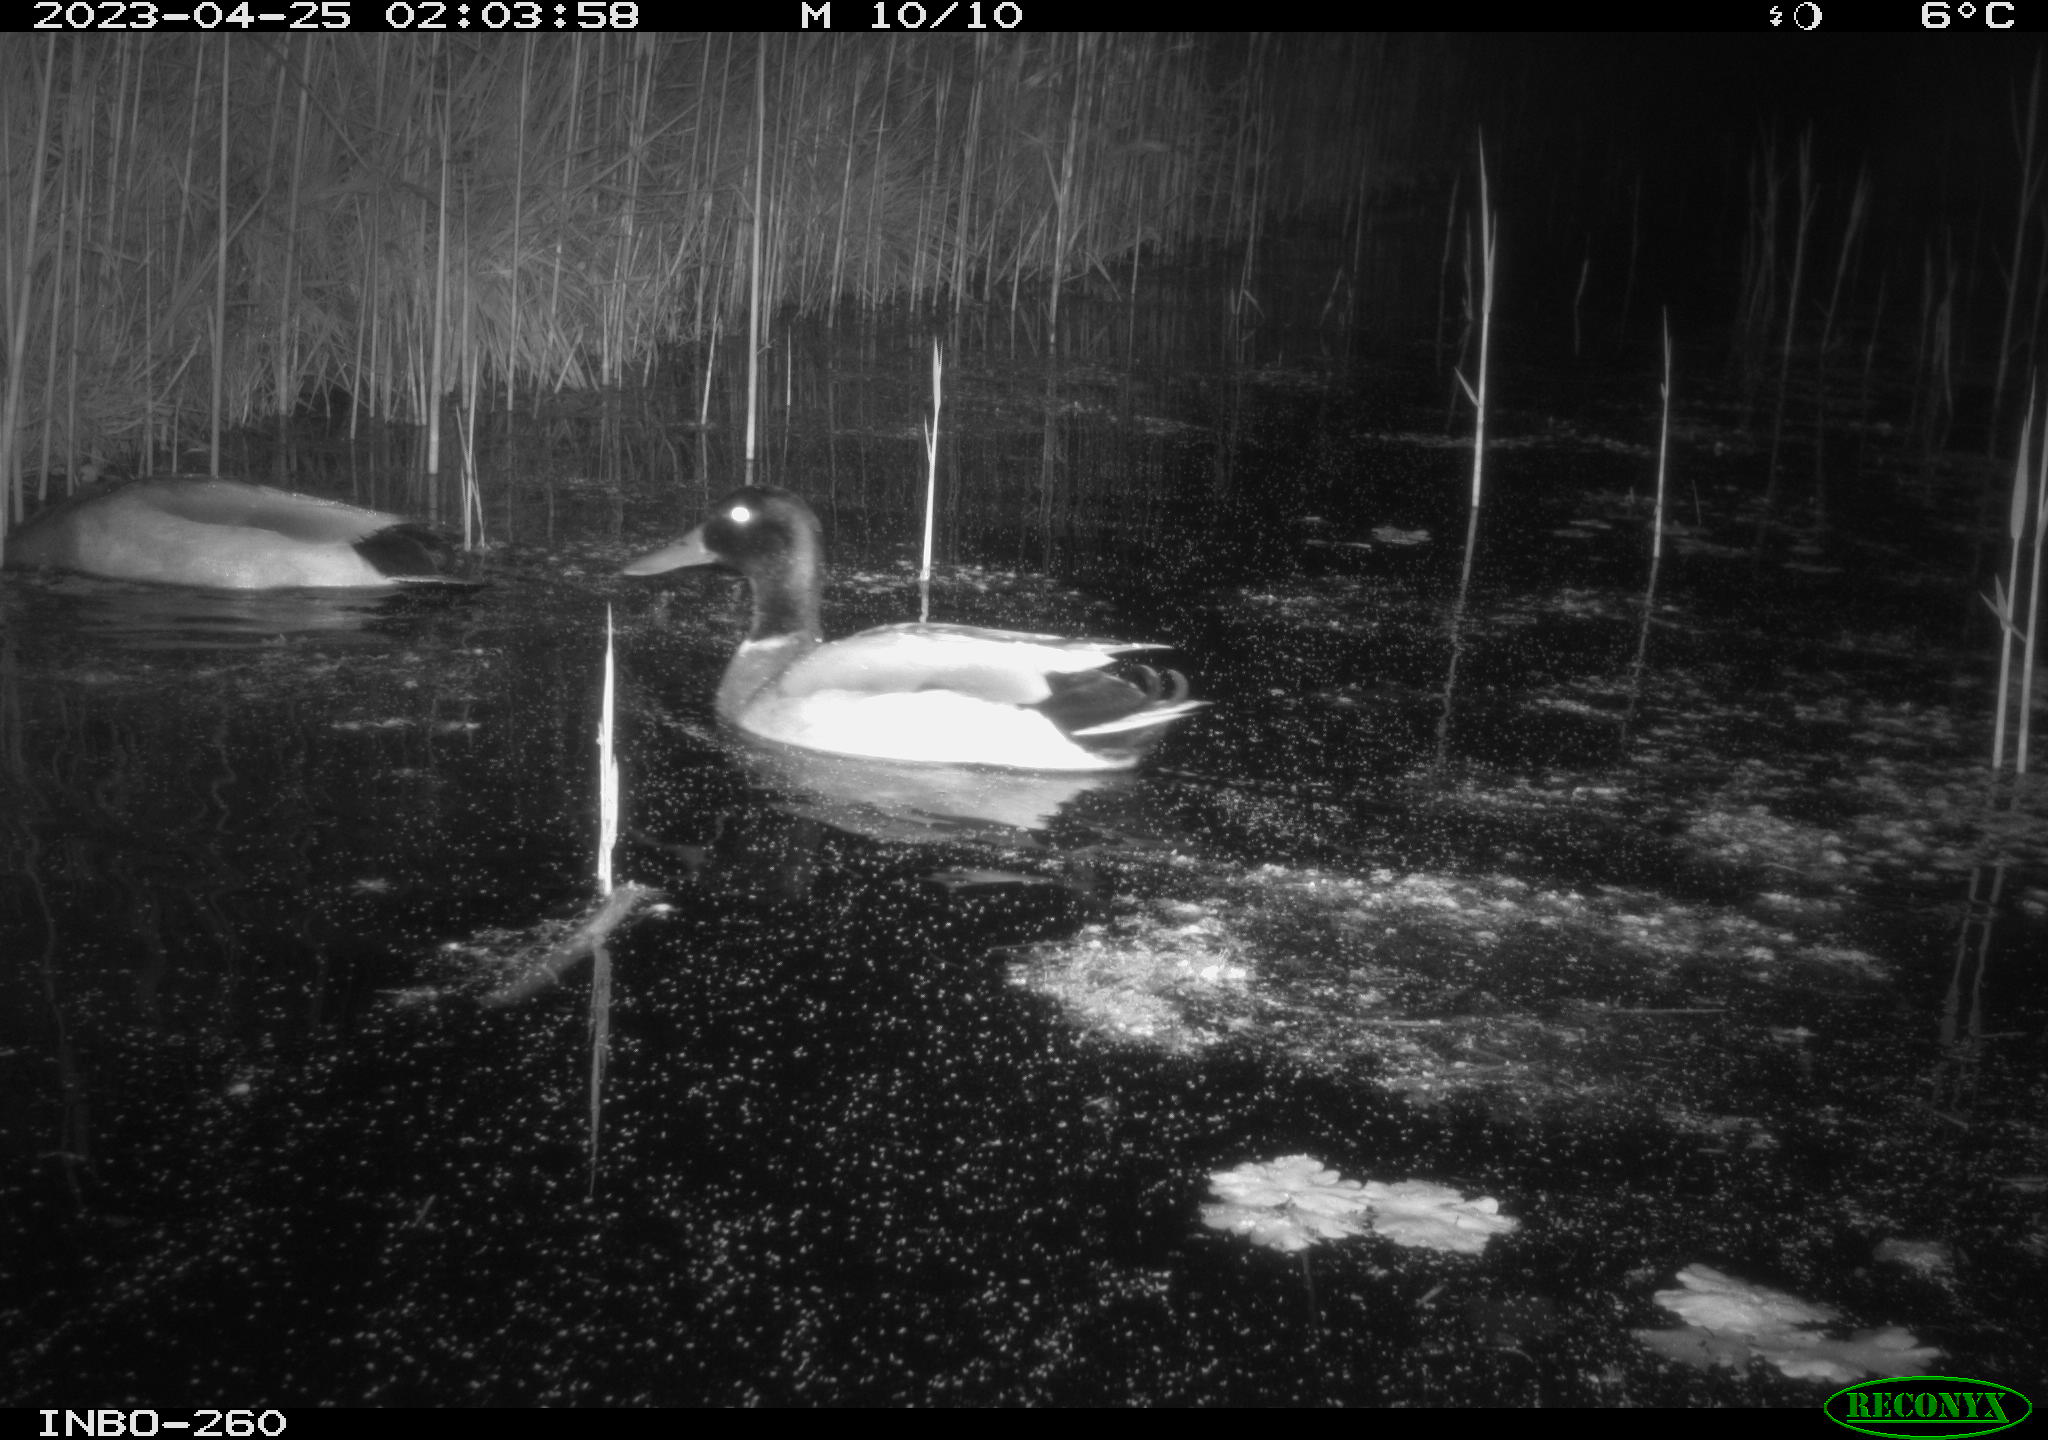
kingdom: Animalia
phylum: Chordata
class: Aves
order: Anseriformes
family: Anatidae
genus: Anas
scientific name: Anas
